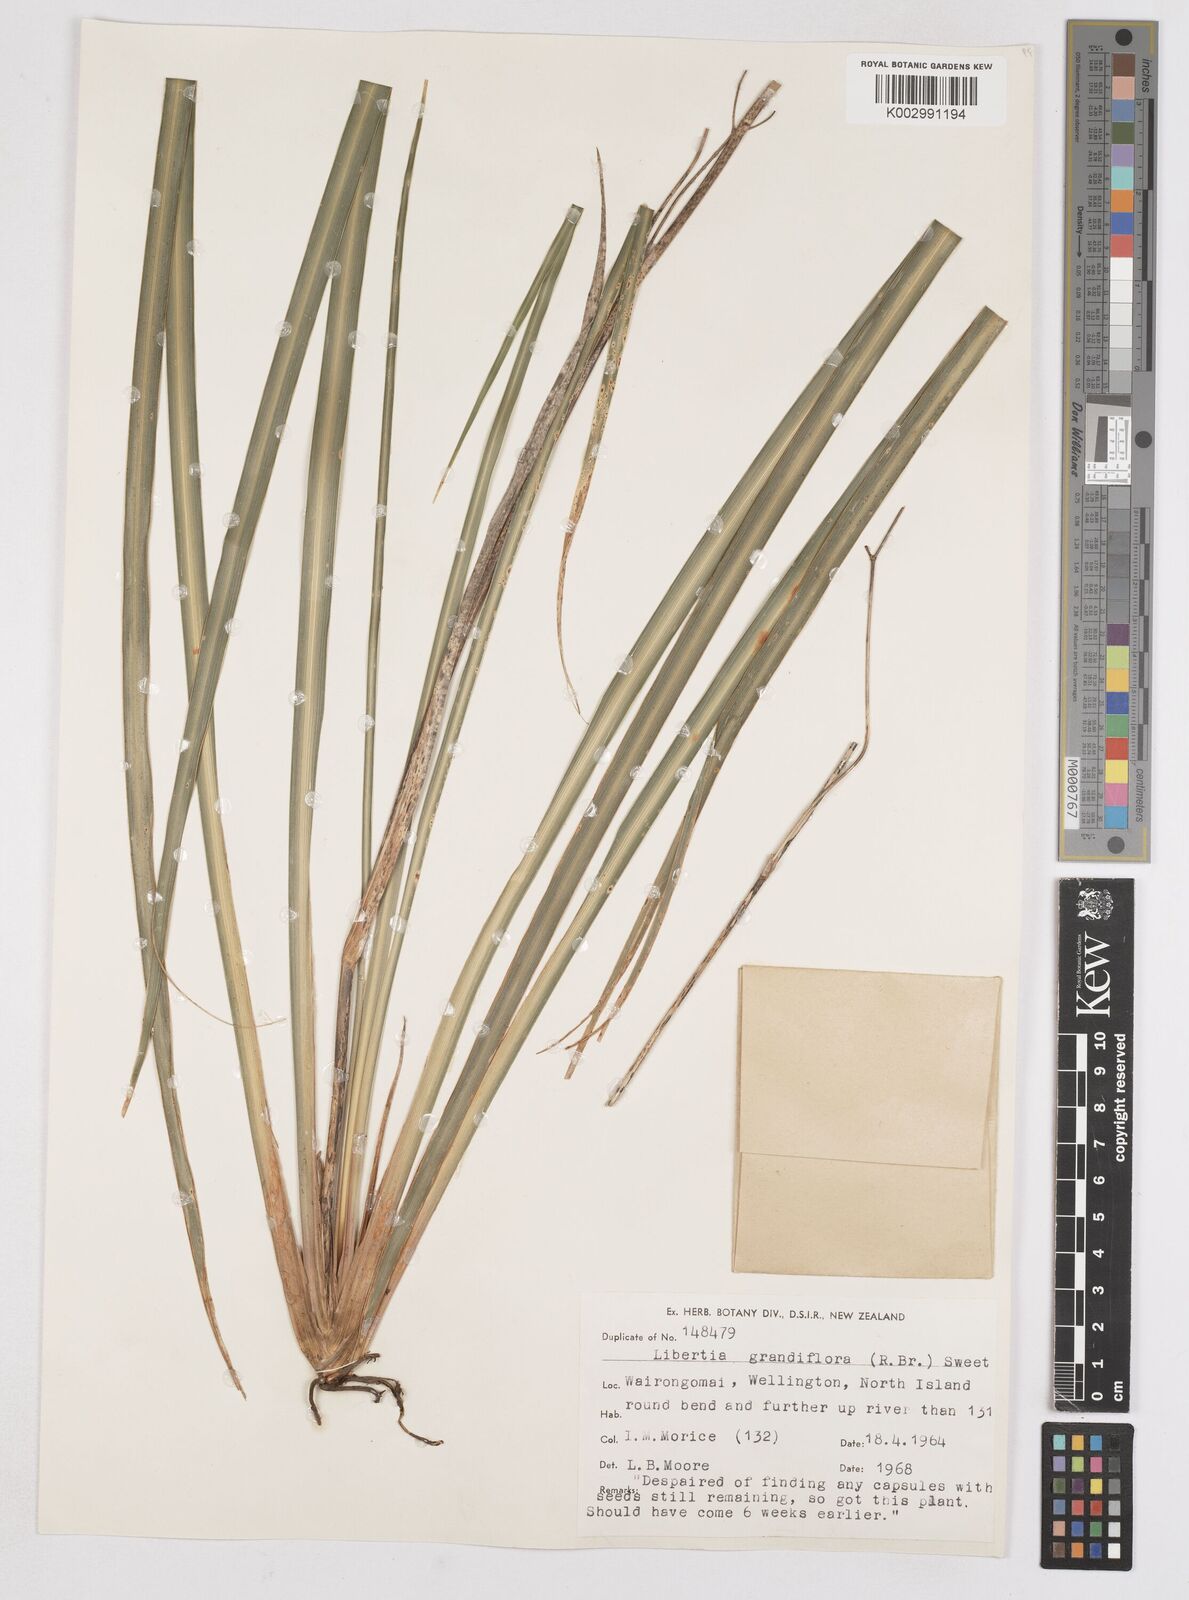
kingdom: Plantae
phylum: Tracheophyta
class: Liliopsida
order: Asparagales
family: Iridaceae
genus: Libertia
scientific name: Libertia grandiflora
